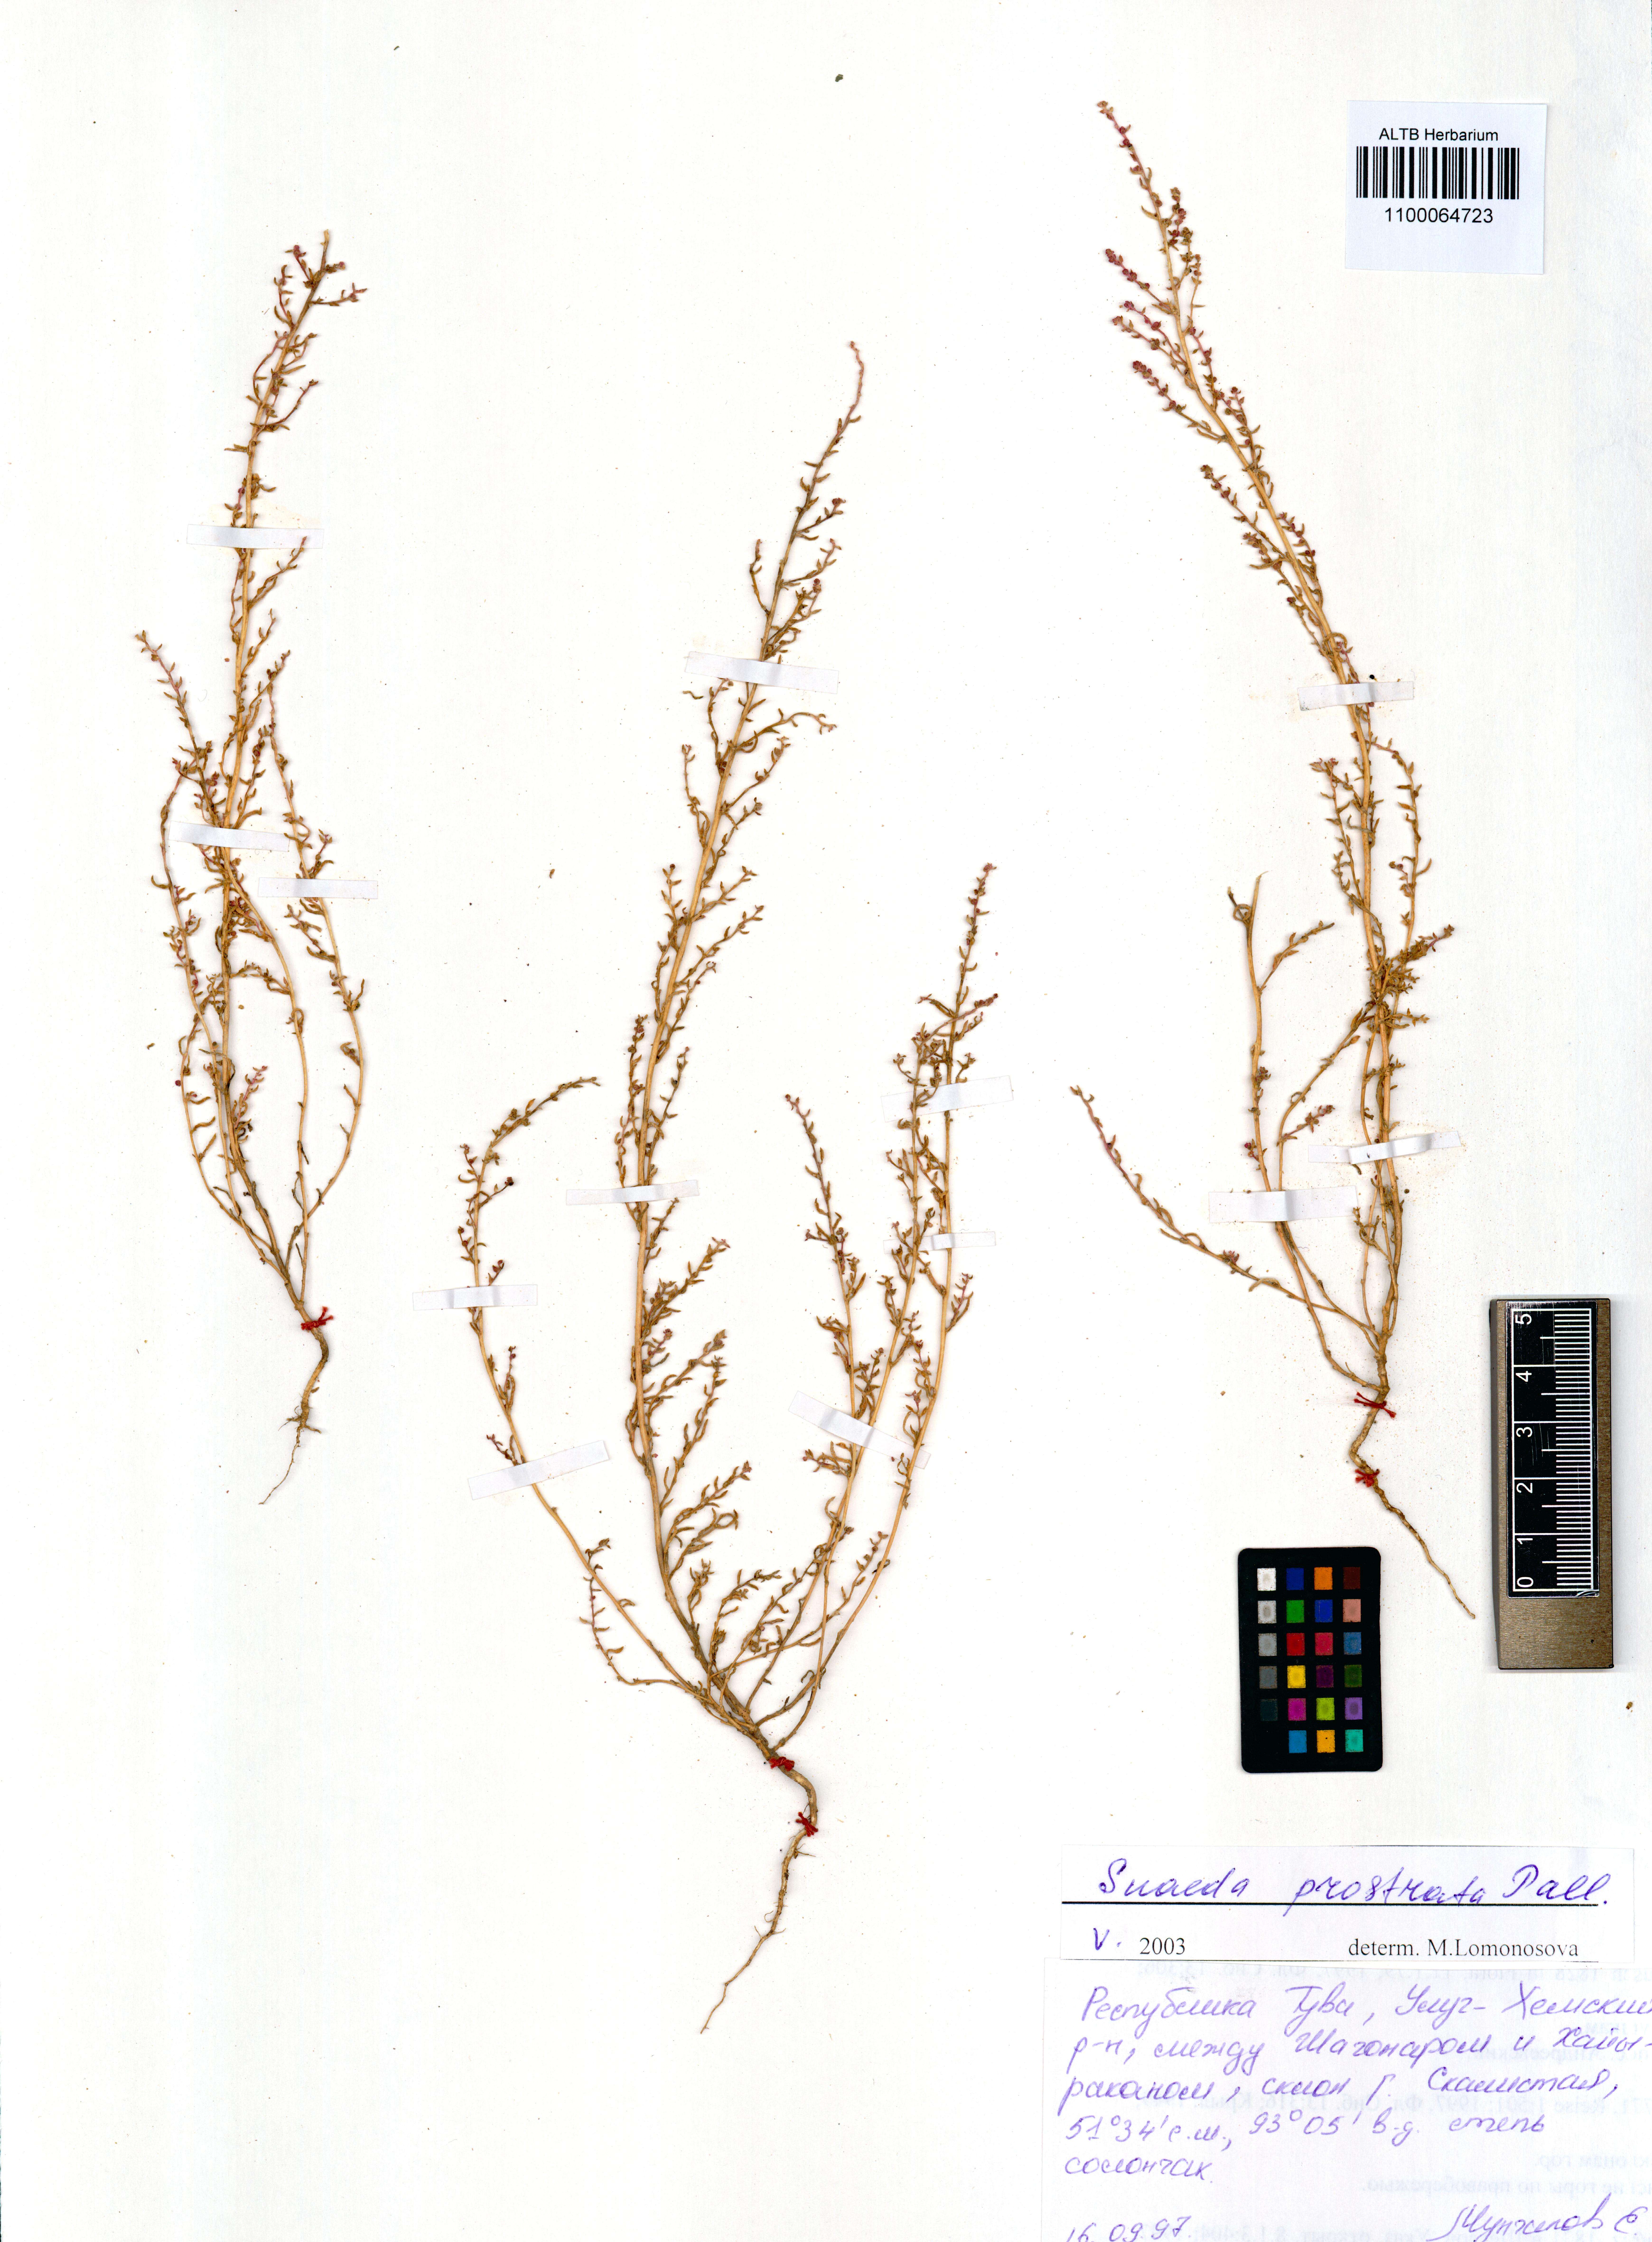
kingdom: Plantae
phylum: Tracheophyta
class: Magnoliopsida
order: Caryophyllales
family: Amaranthaceae
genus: Suaeda
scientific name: Suaeda prostrata
